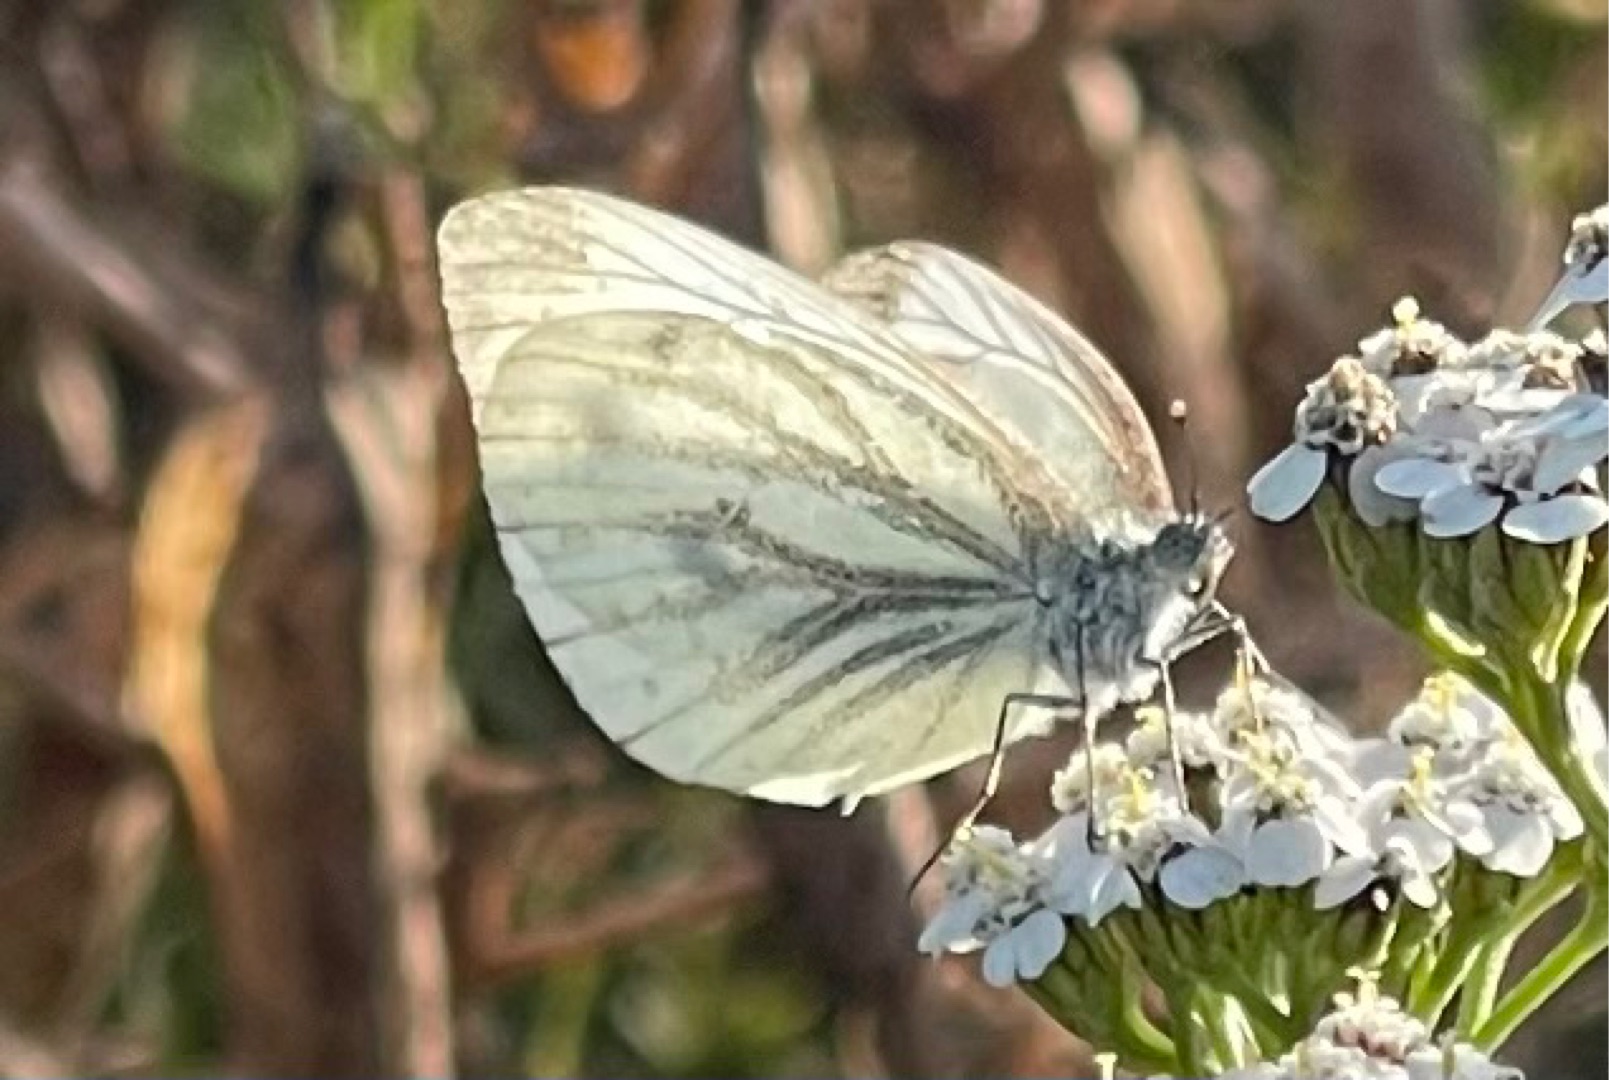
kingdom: Animalia
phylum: Arthropoda
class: Insecta
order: Lepidoptera
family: Pieridae
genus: Pieris
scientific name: Pieris napi
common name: Grønåret kålsommerfugl
